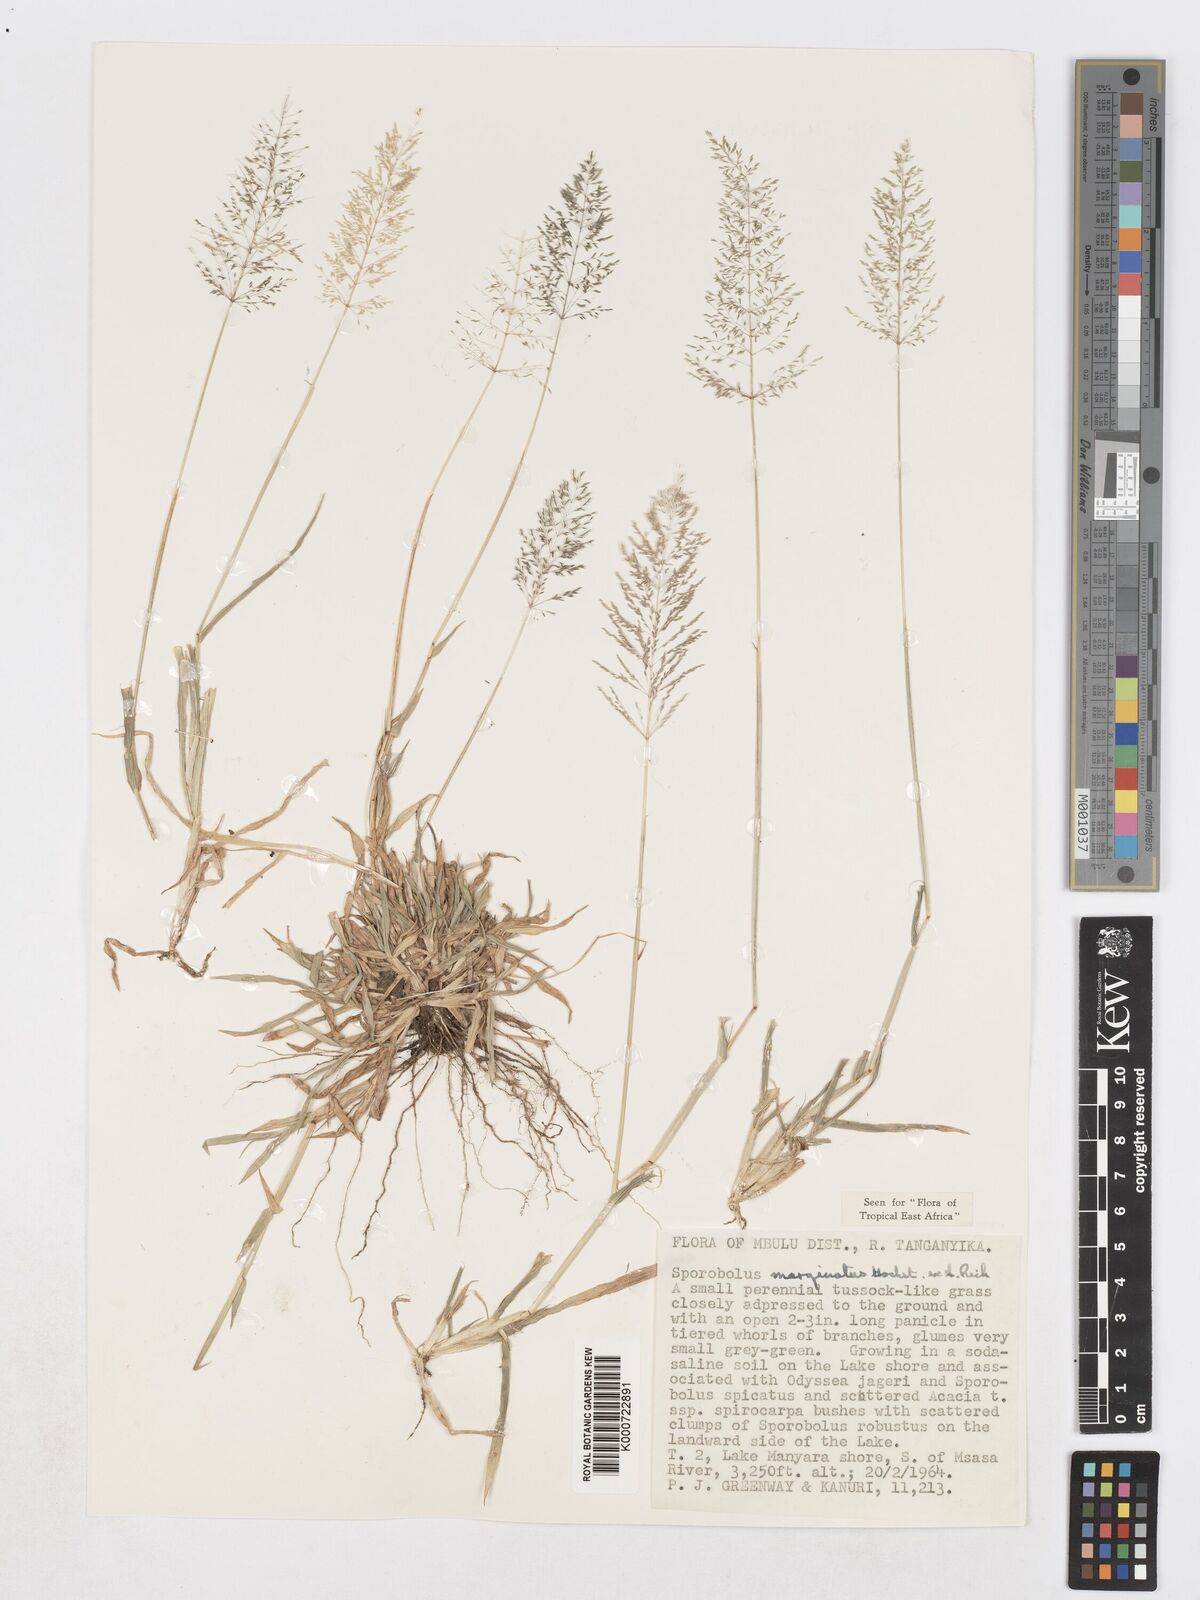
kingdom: Plantae
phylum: Tracheophyta
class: Liliopsida
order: Poales
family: Poaceae
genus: Sporobolus
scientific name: Sporobolus ioclados
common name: Pan dropseed
